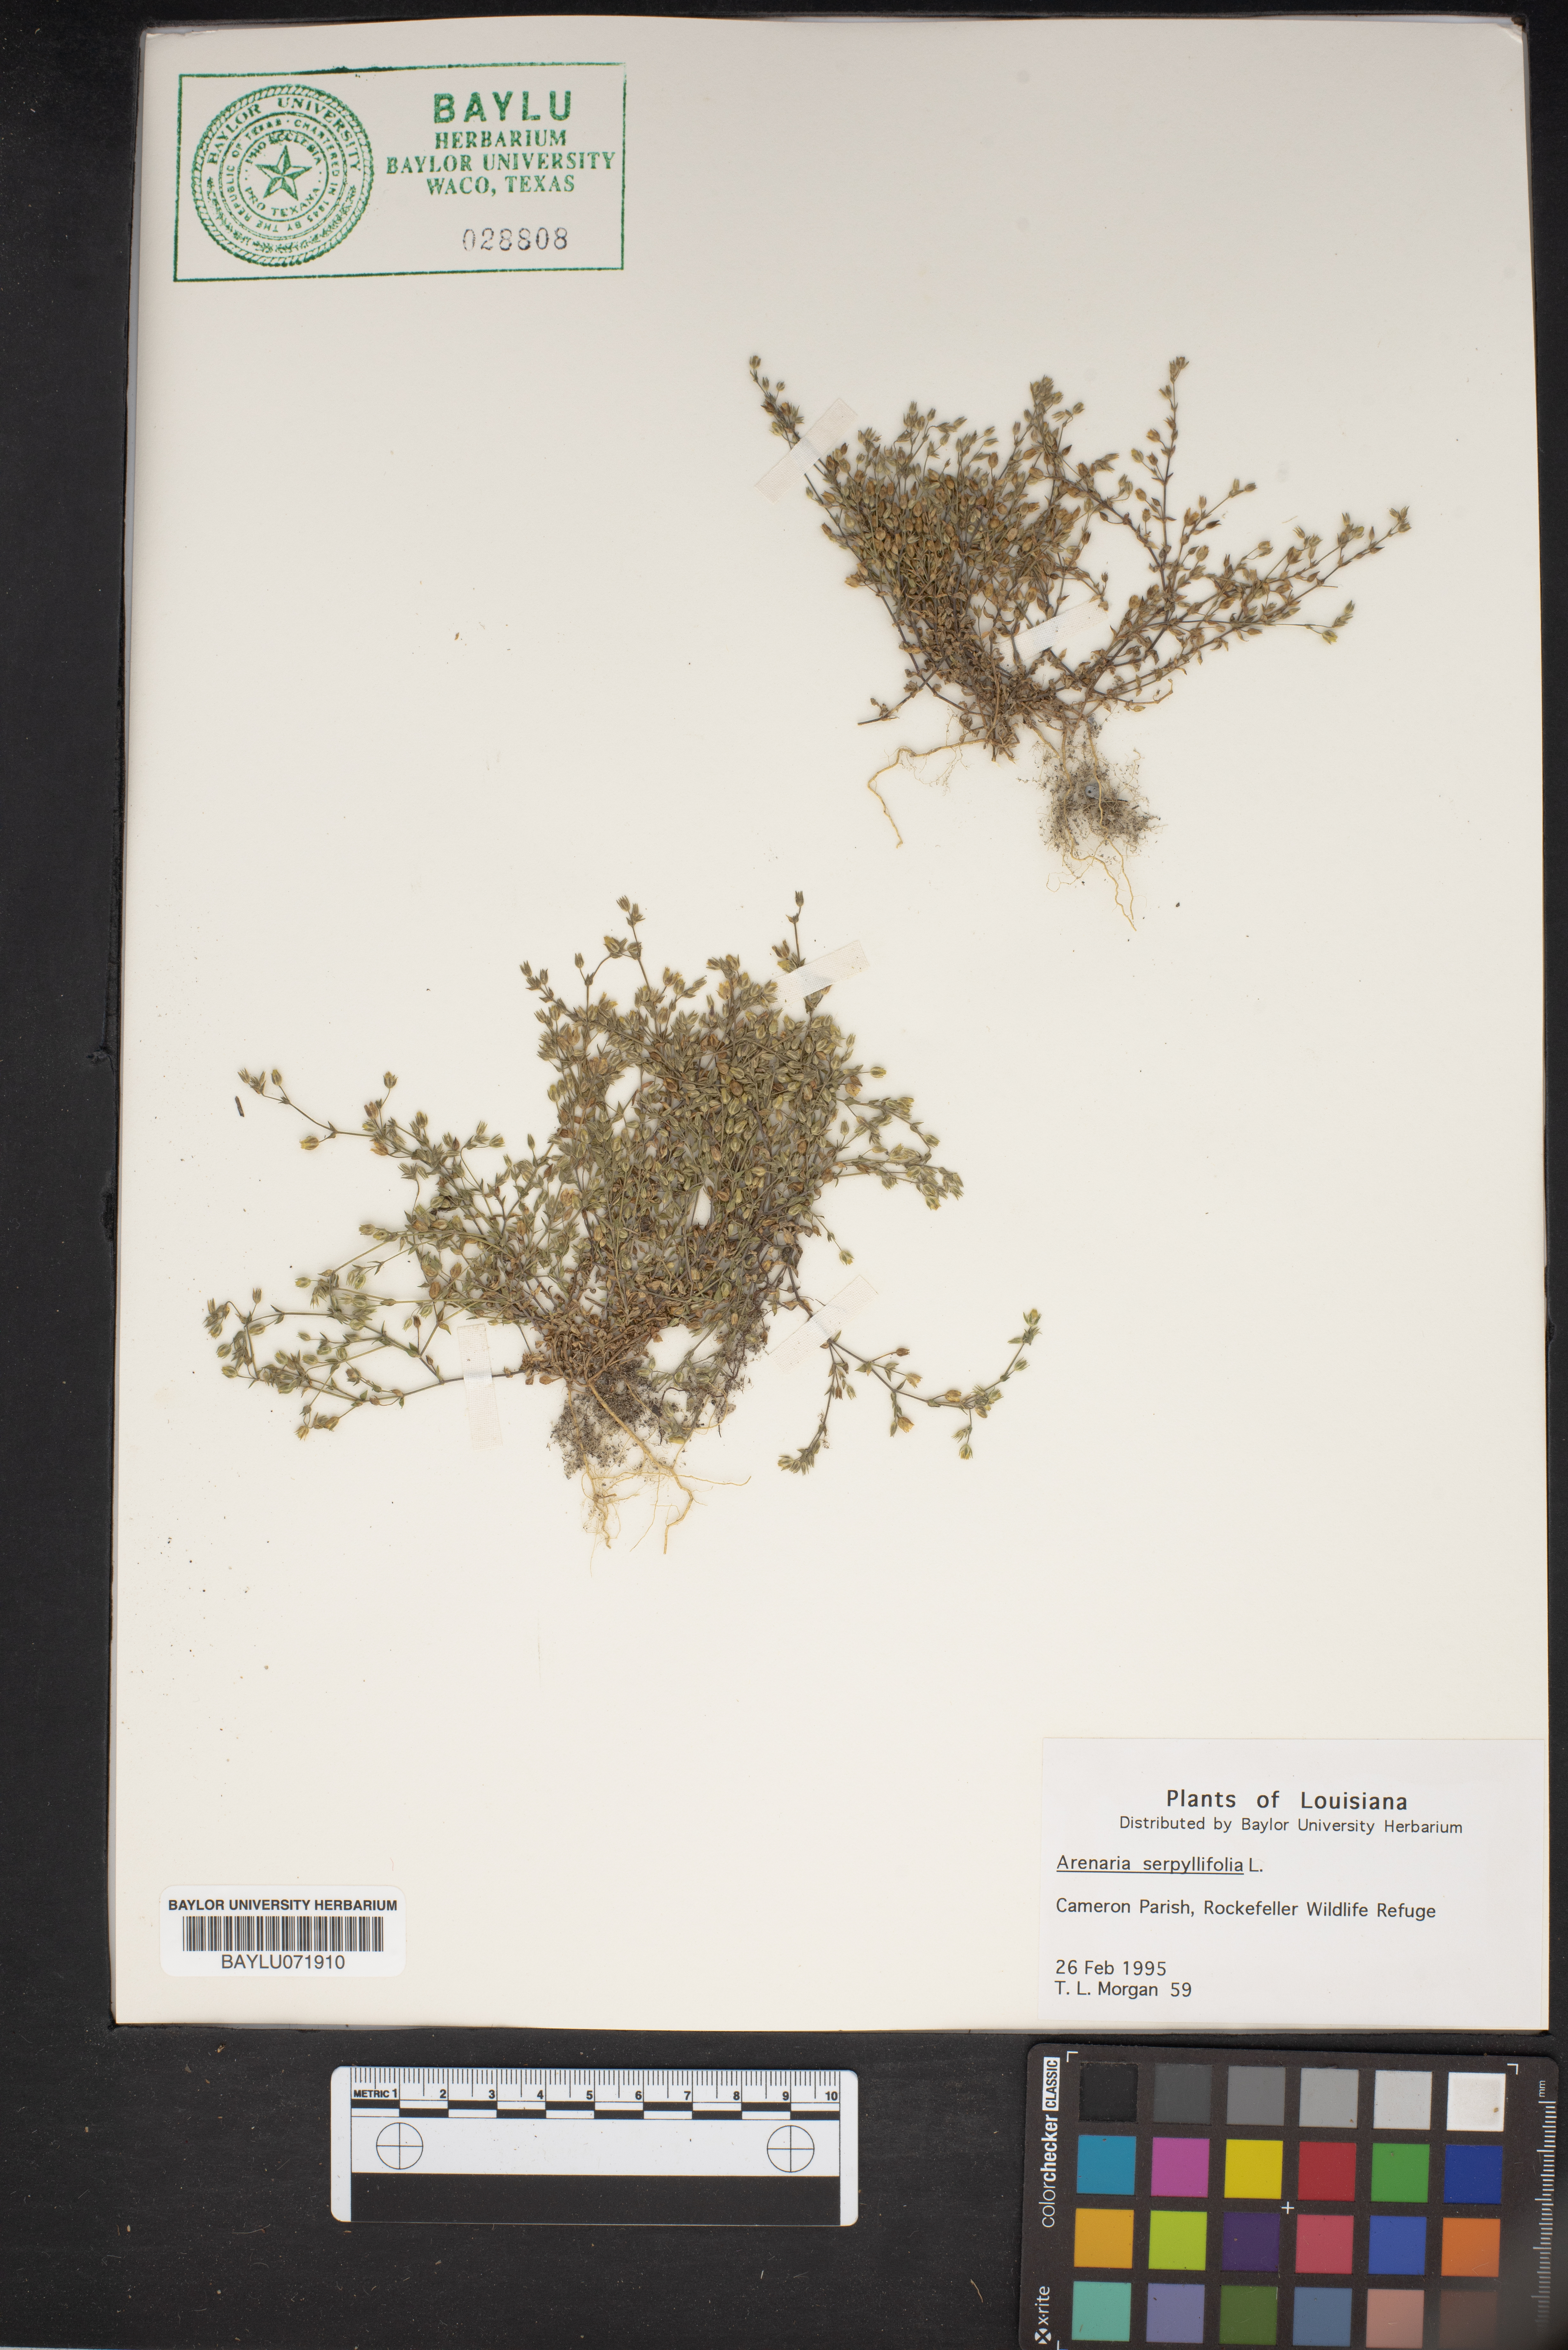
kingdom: Plantae
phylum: Tracheophyta
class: Magnoliopsida
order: Caryophyllales
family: Caryophyllaceae
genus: Arenaria
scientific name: Arenaria serpyllifolia
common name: Thyme-leaved sandwort
